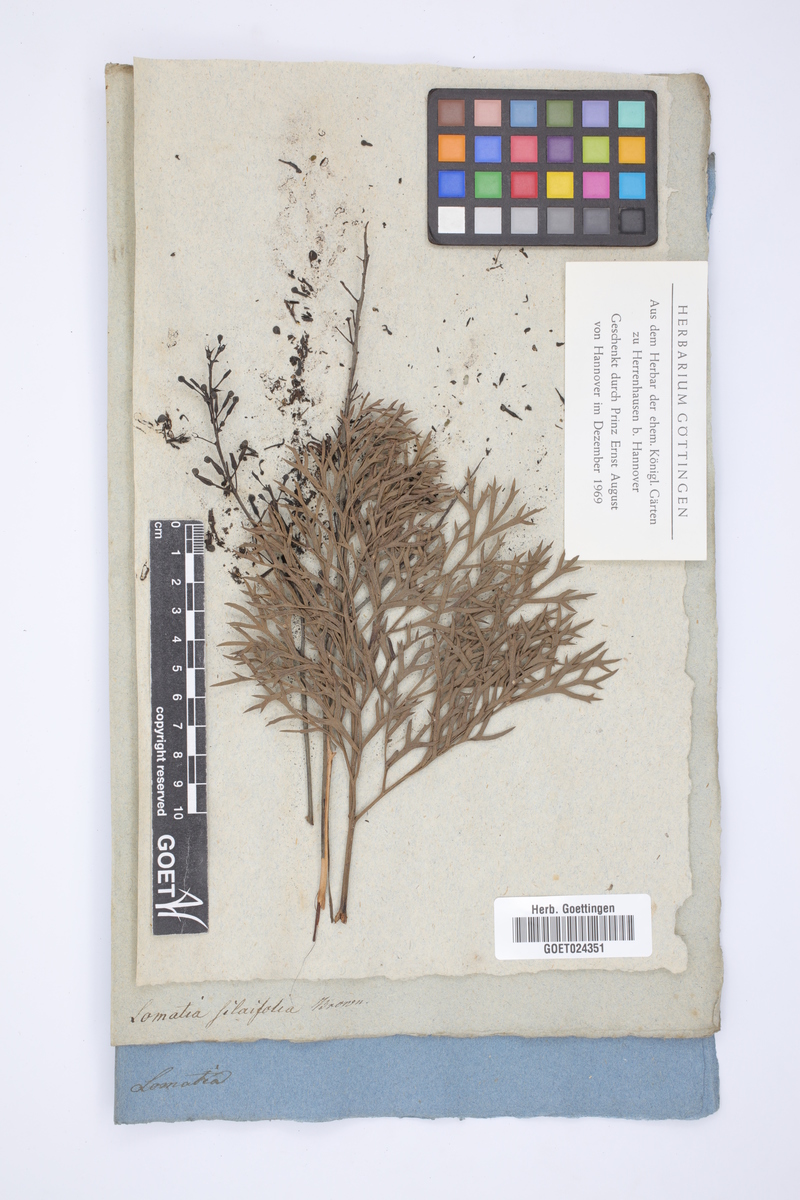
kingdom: Plantae
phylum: Tracheophyta
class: Magnoliopsida
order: Proteales
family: Proteaceae
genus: Lomatia
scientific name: Lomatia silaifolia
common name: Crinklebush
